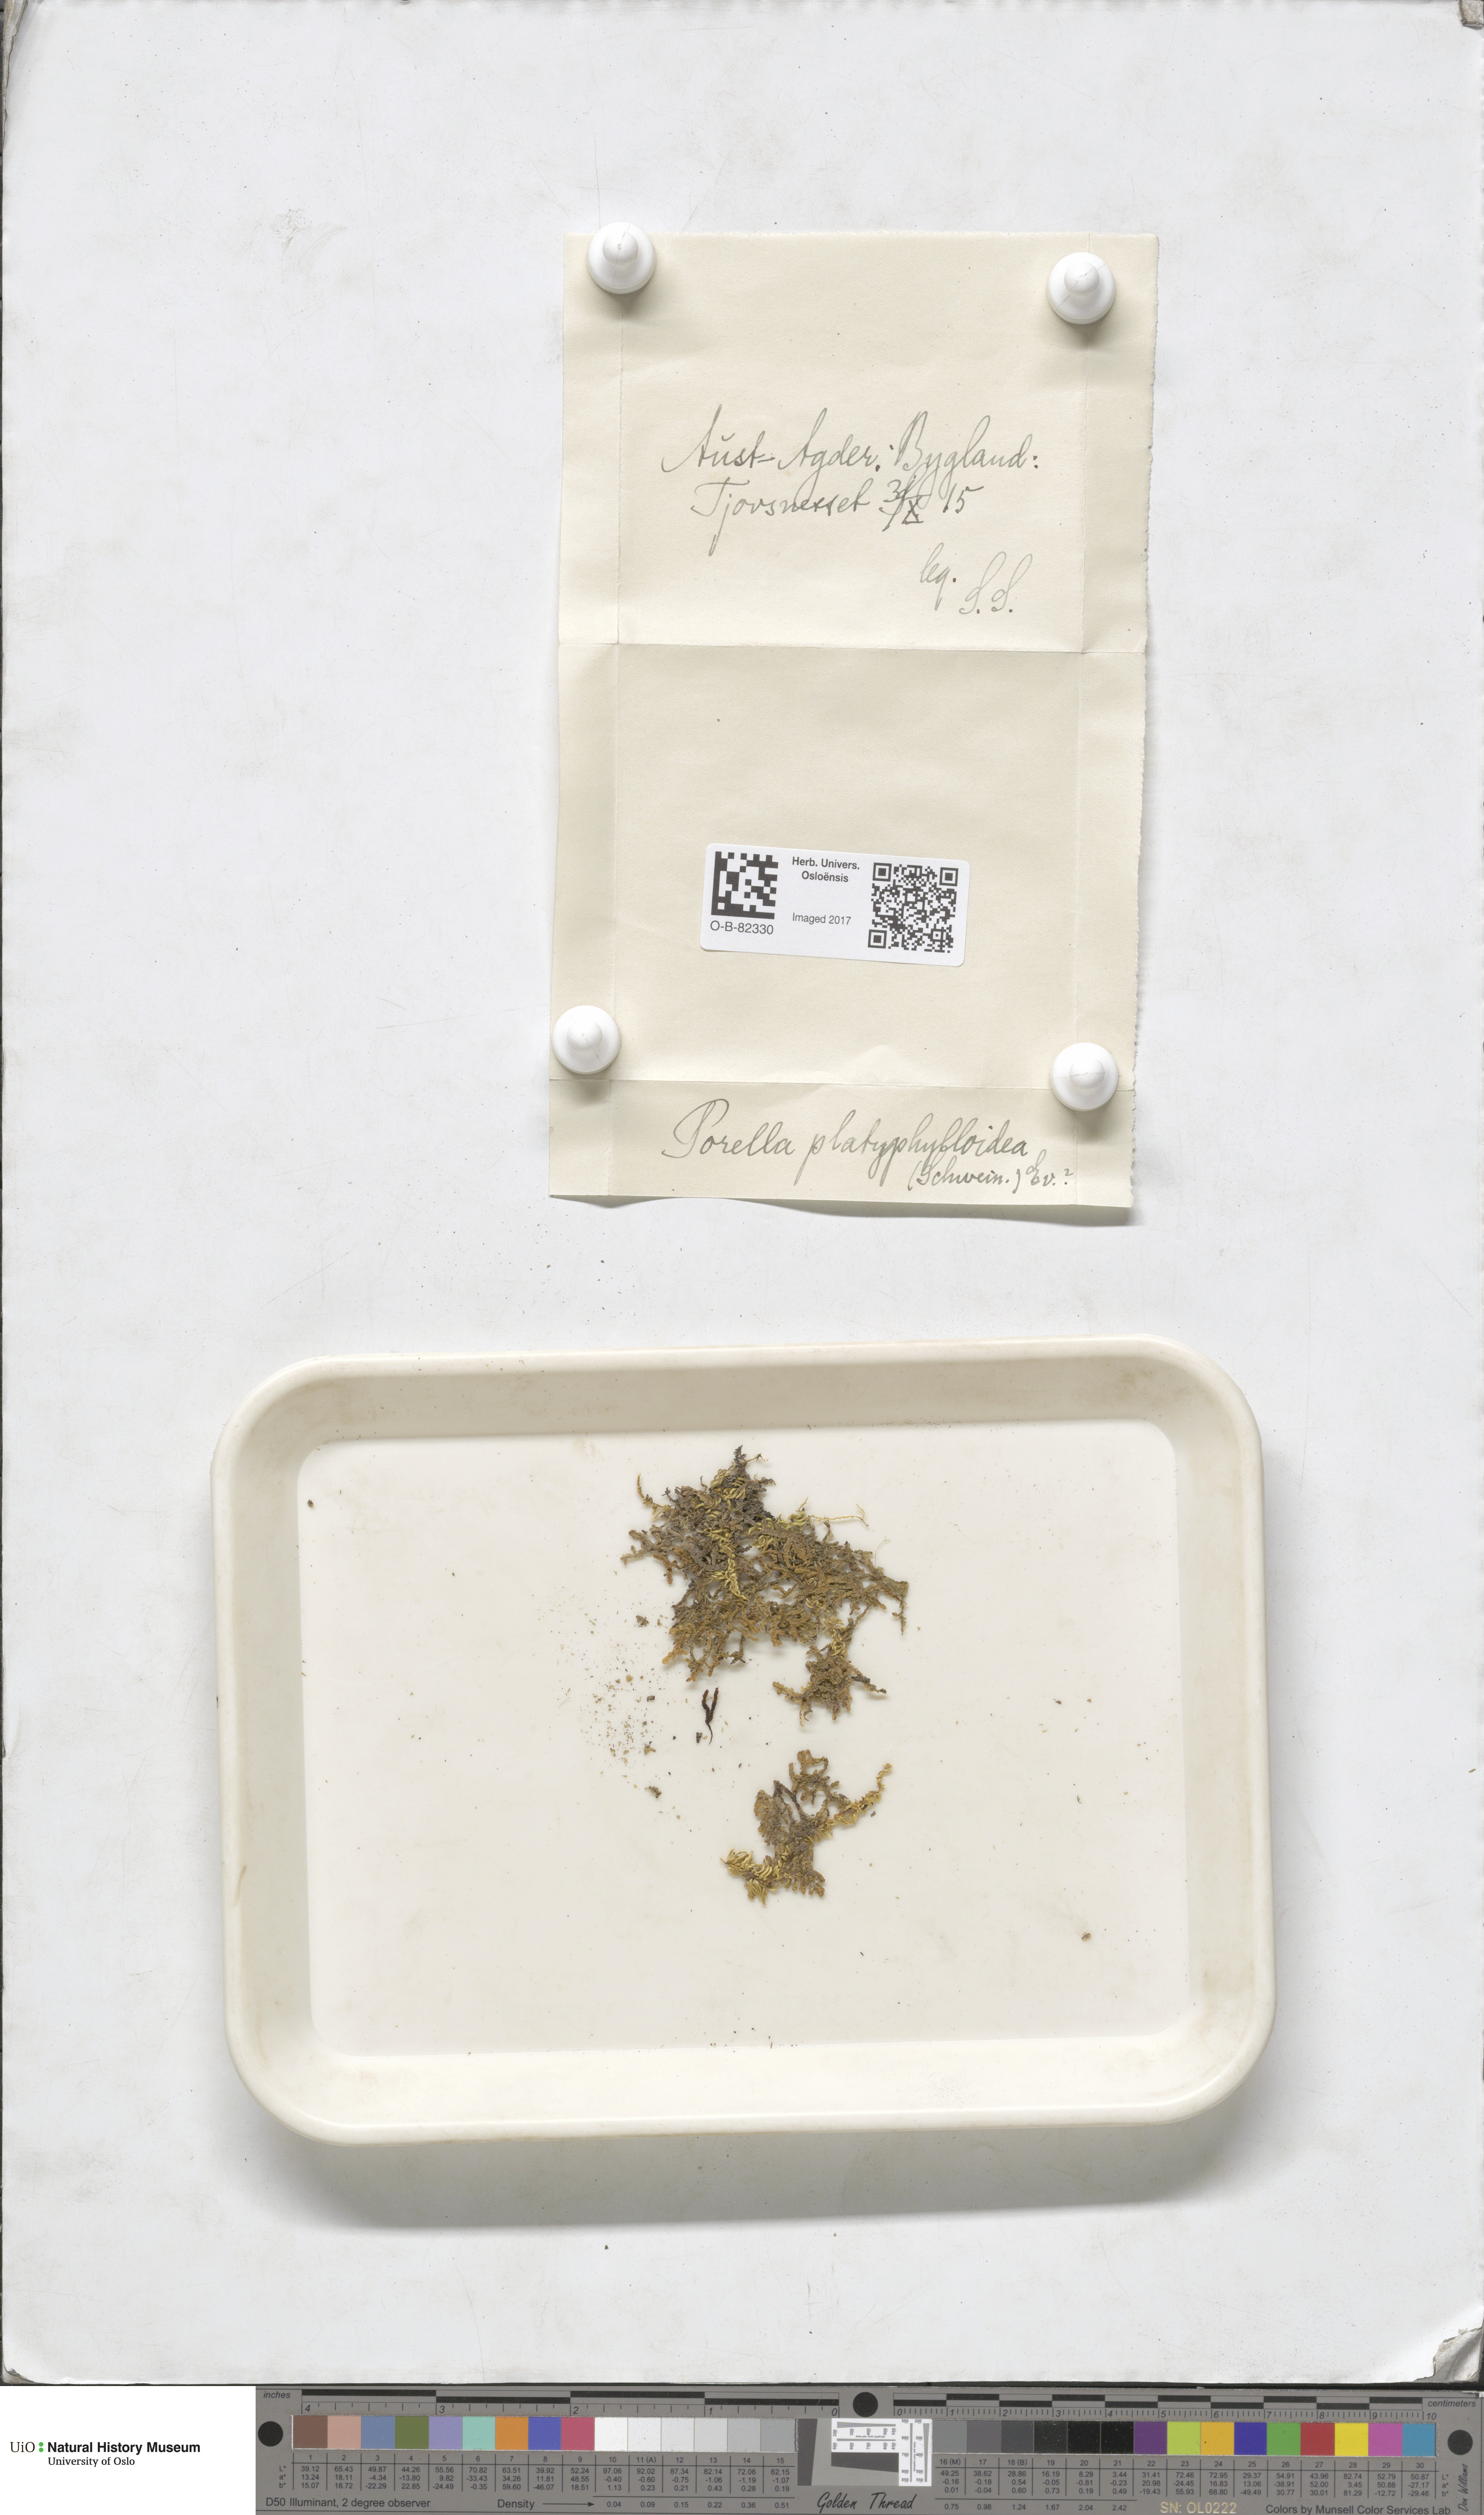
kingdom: Plantae
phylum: Marchantiophyta
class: Jungermanniopsida
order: Porellales
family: Porellaceae
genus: Porella
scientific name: Porella platyphylla
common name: Wall scalewort
